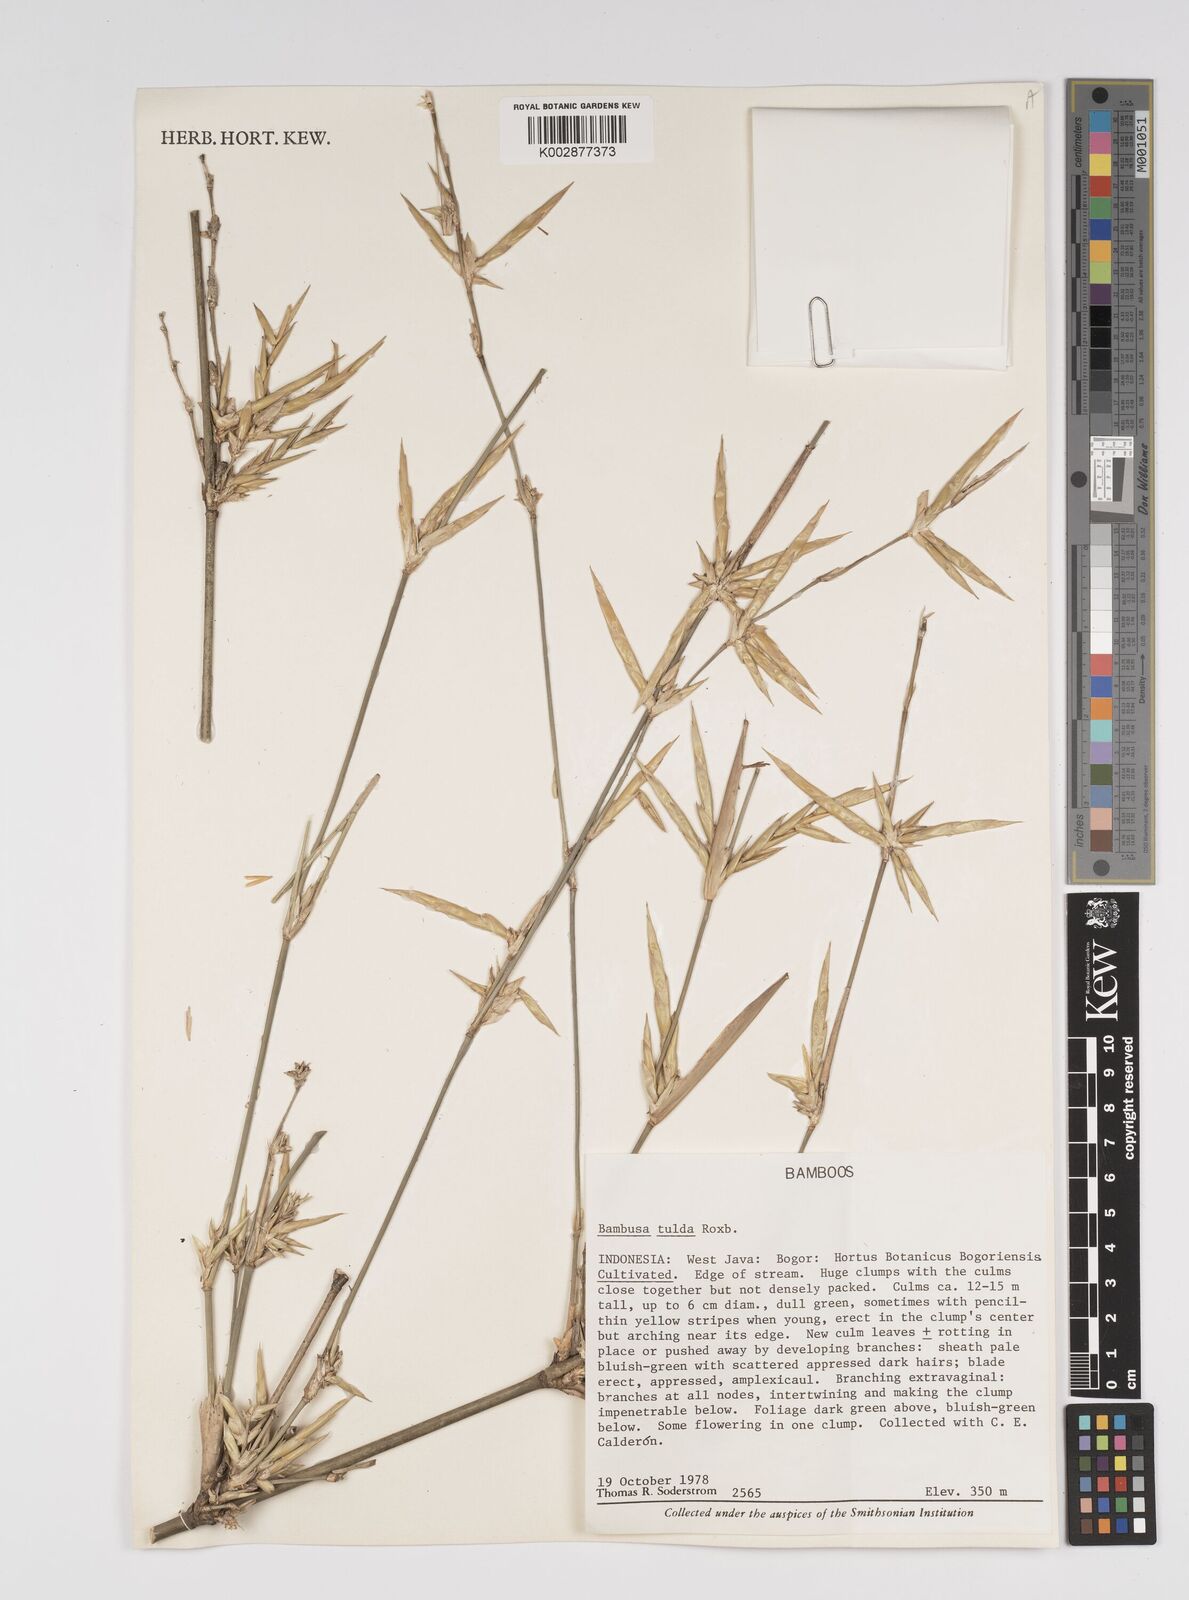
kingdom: Plantae
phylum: Tracheophyta
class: Liliopsida
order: Poales
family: Poaceae
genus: Bambusa
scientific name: Bambusa tulda
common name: Bengal bamboo
